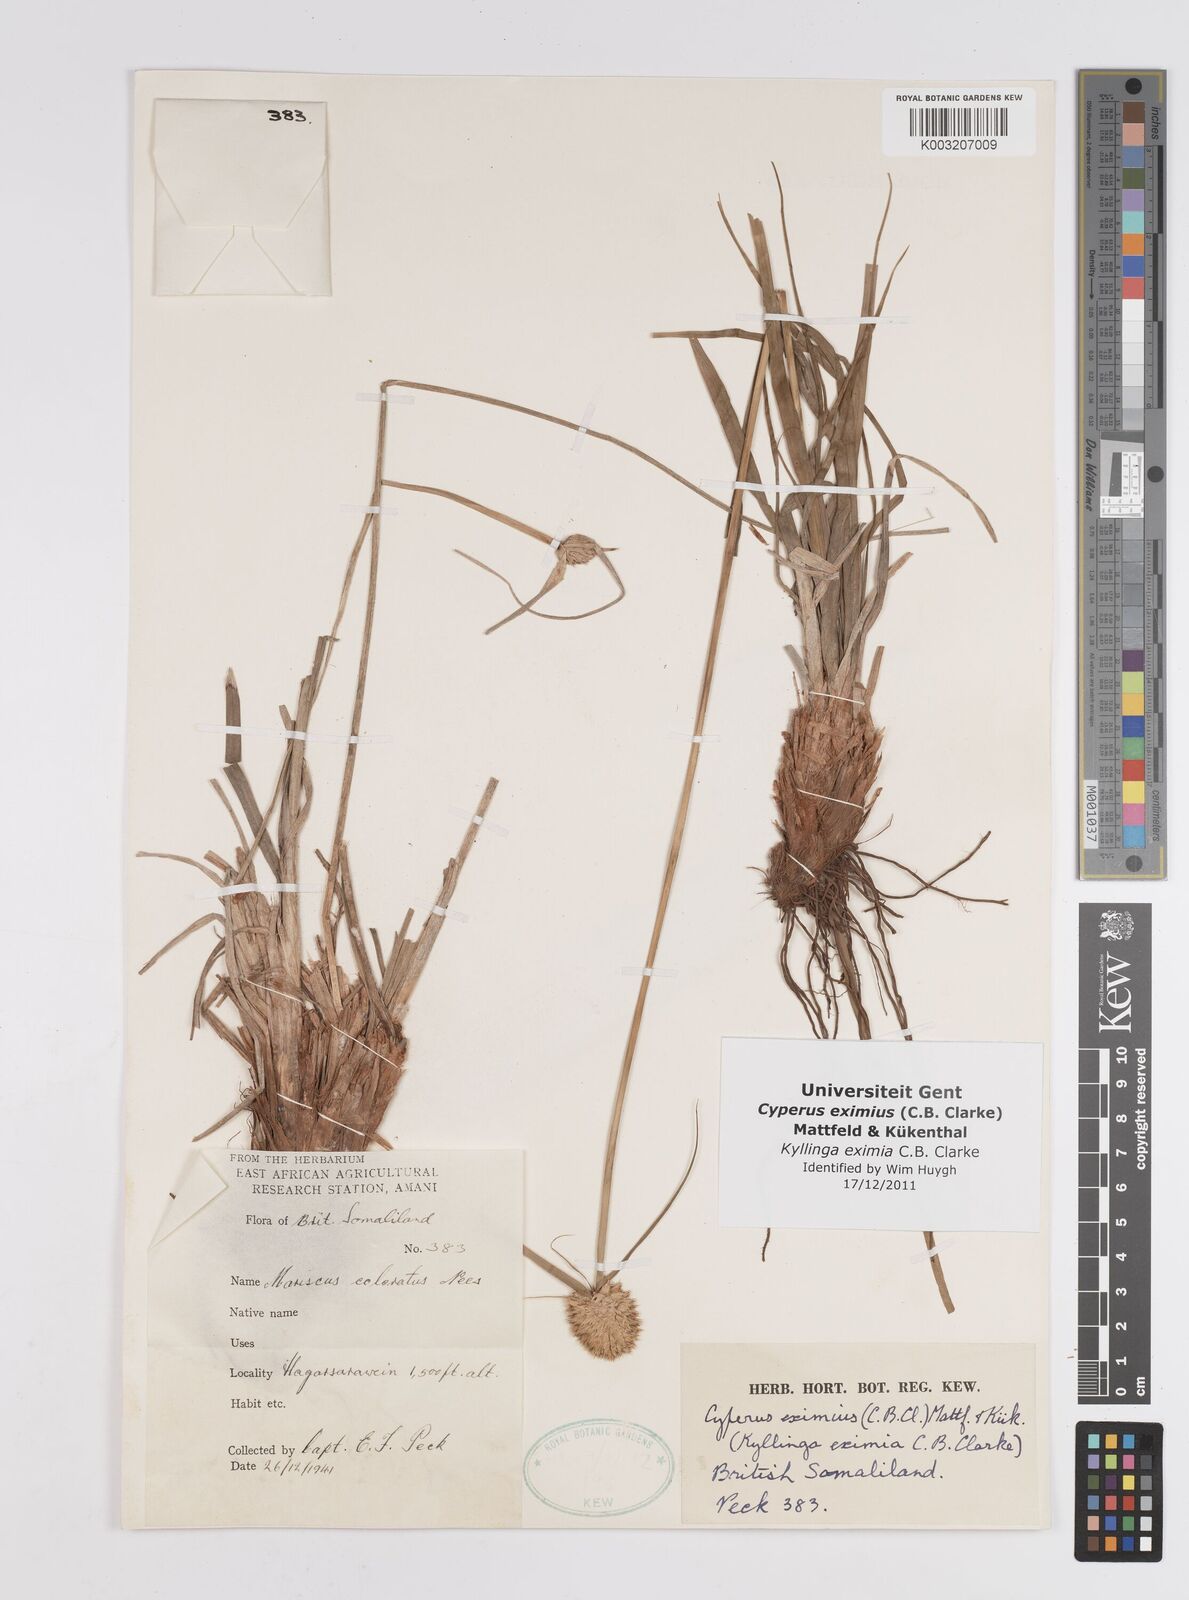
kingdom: Plantae
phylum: Tracheophyta
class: Liliopsida
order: Poales
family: Cyperaceae
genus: Cyperus
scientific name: Cyperus eximius
